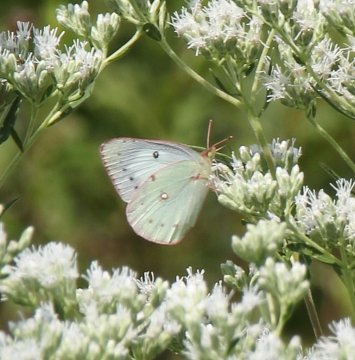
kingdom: Animalia
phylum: Arthropoda
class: Insecta
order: Lepidoptera
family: Pieridae
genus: Colias
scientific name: Colias eurytheme
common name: Orange Sulphur
